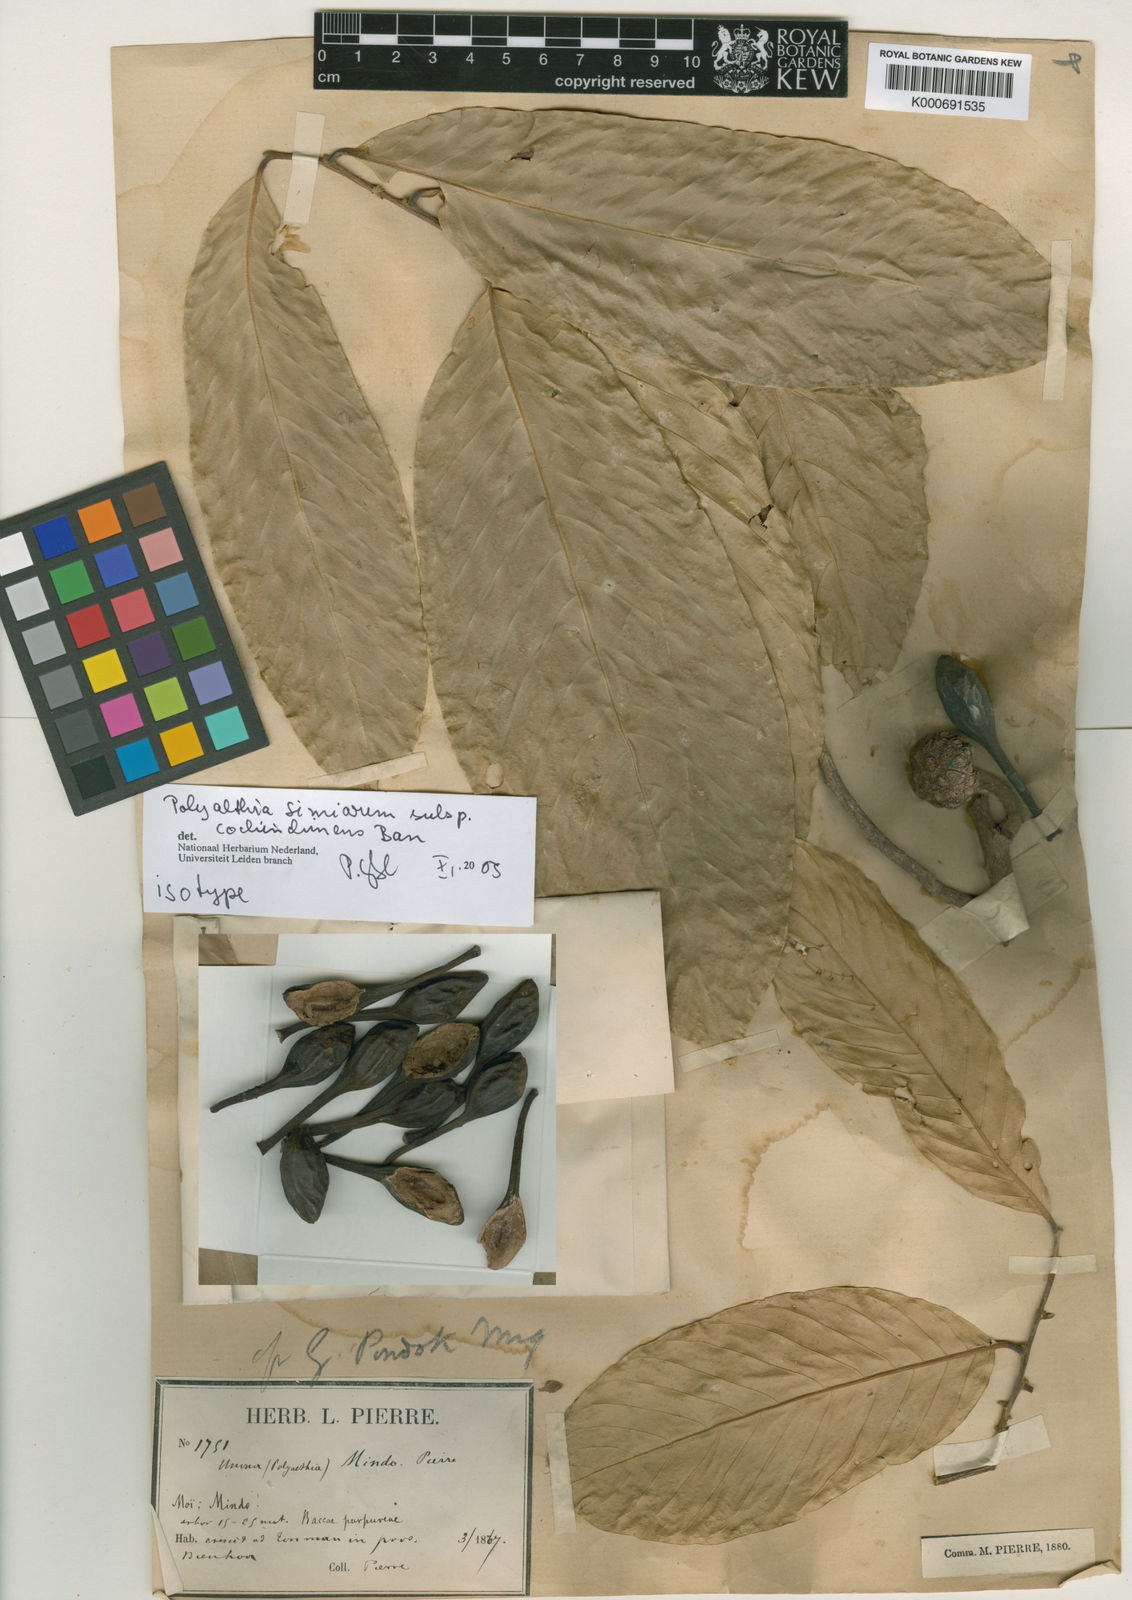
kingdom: Plantae
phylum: Tracheophyta
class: Magnoliopsida
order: Magnoliales
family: Annonaceae
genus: Polyalthia
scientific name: Polyalthia simiarum
